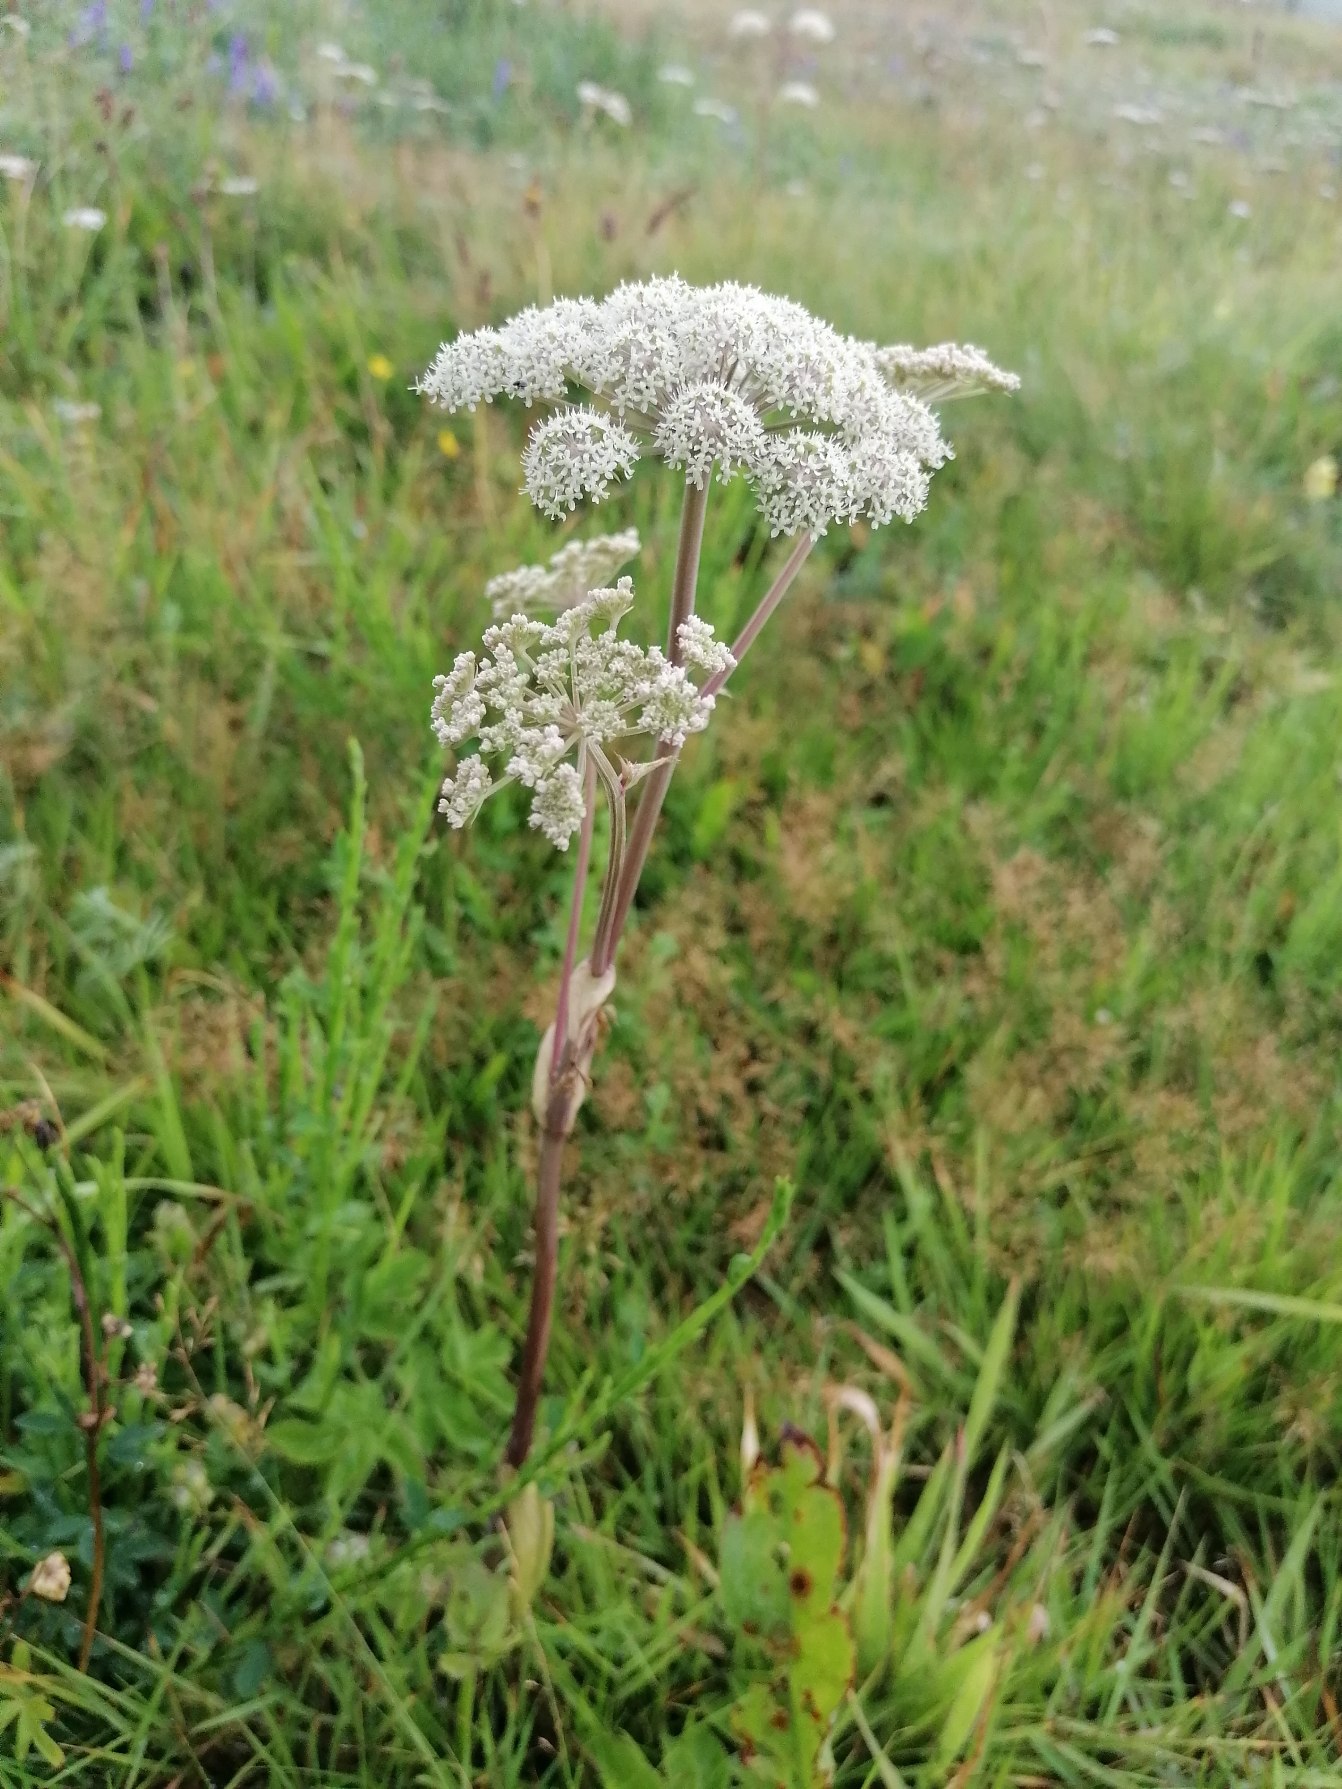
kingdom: Plantae
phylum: Tracheophyta
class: Magnoliopsida
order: Apiales
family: Apiaceae
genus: Angelica
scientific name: Angelica sylvestris
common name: Angelik
